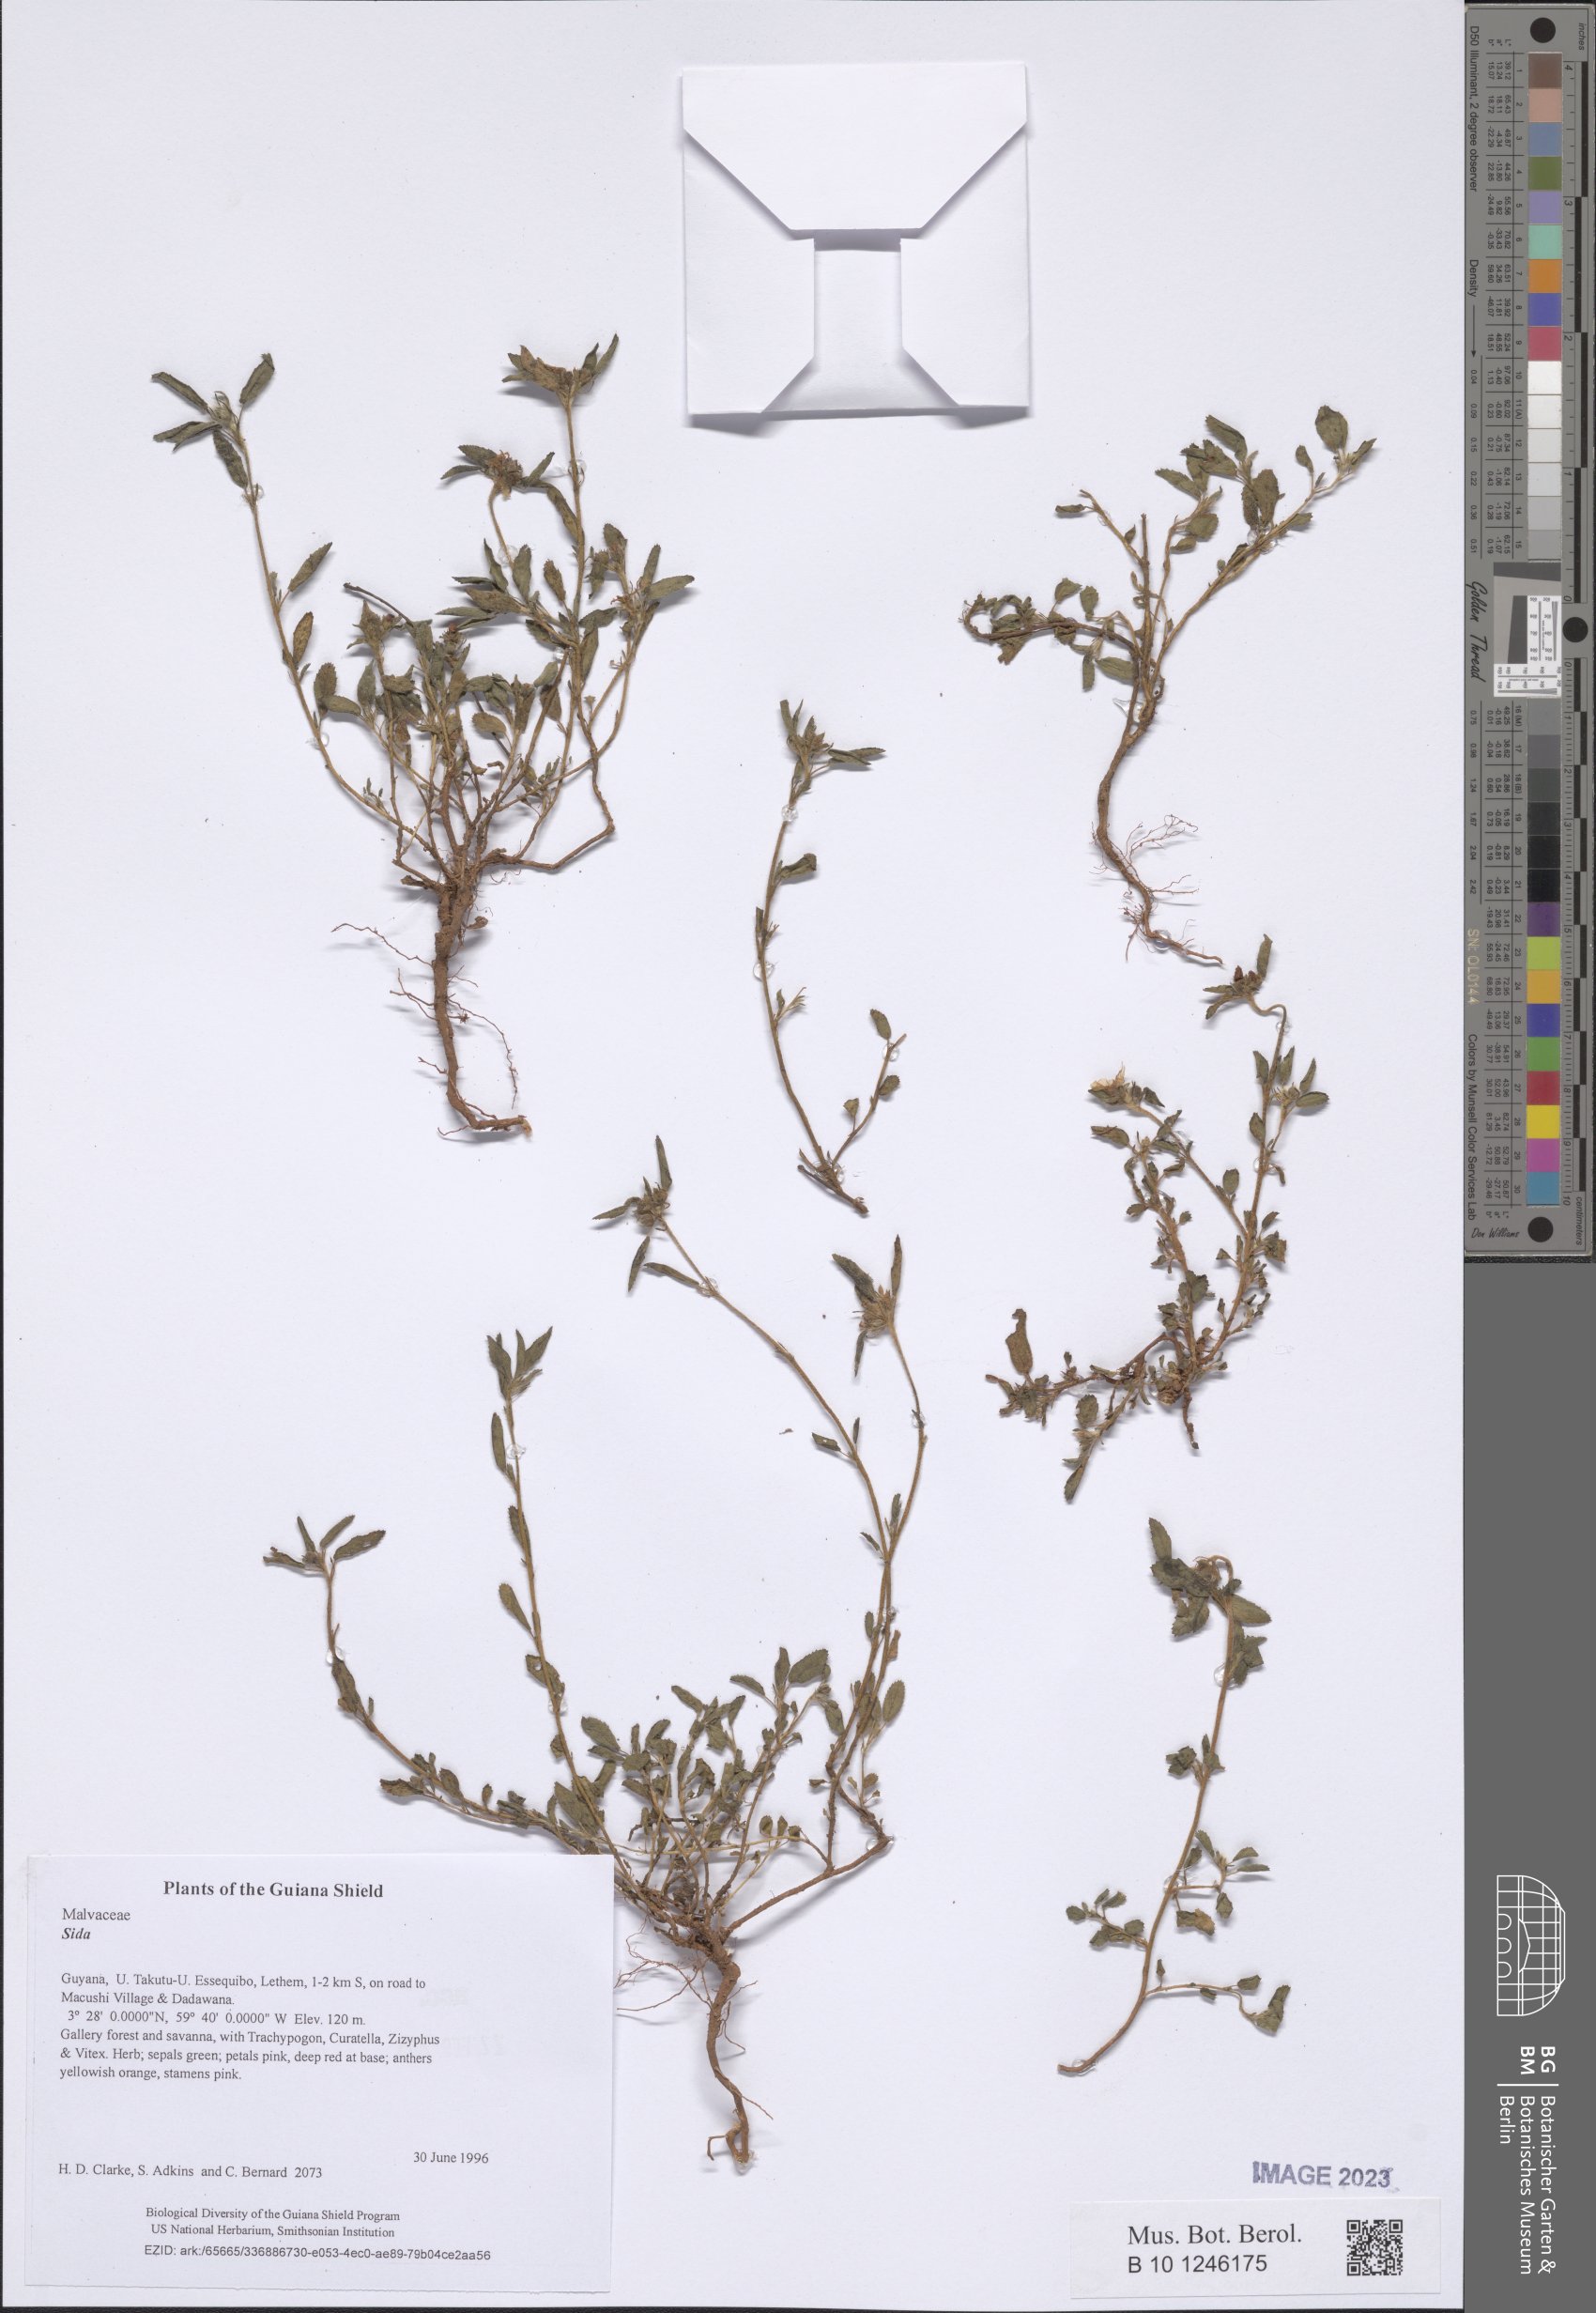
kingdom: Plantae
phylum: Tracheophyta
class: Magnoliopsida
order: Malvales
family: Malvaceae
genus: Sida
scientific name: Sida
